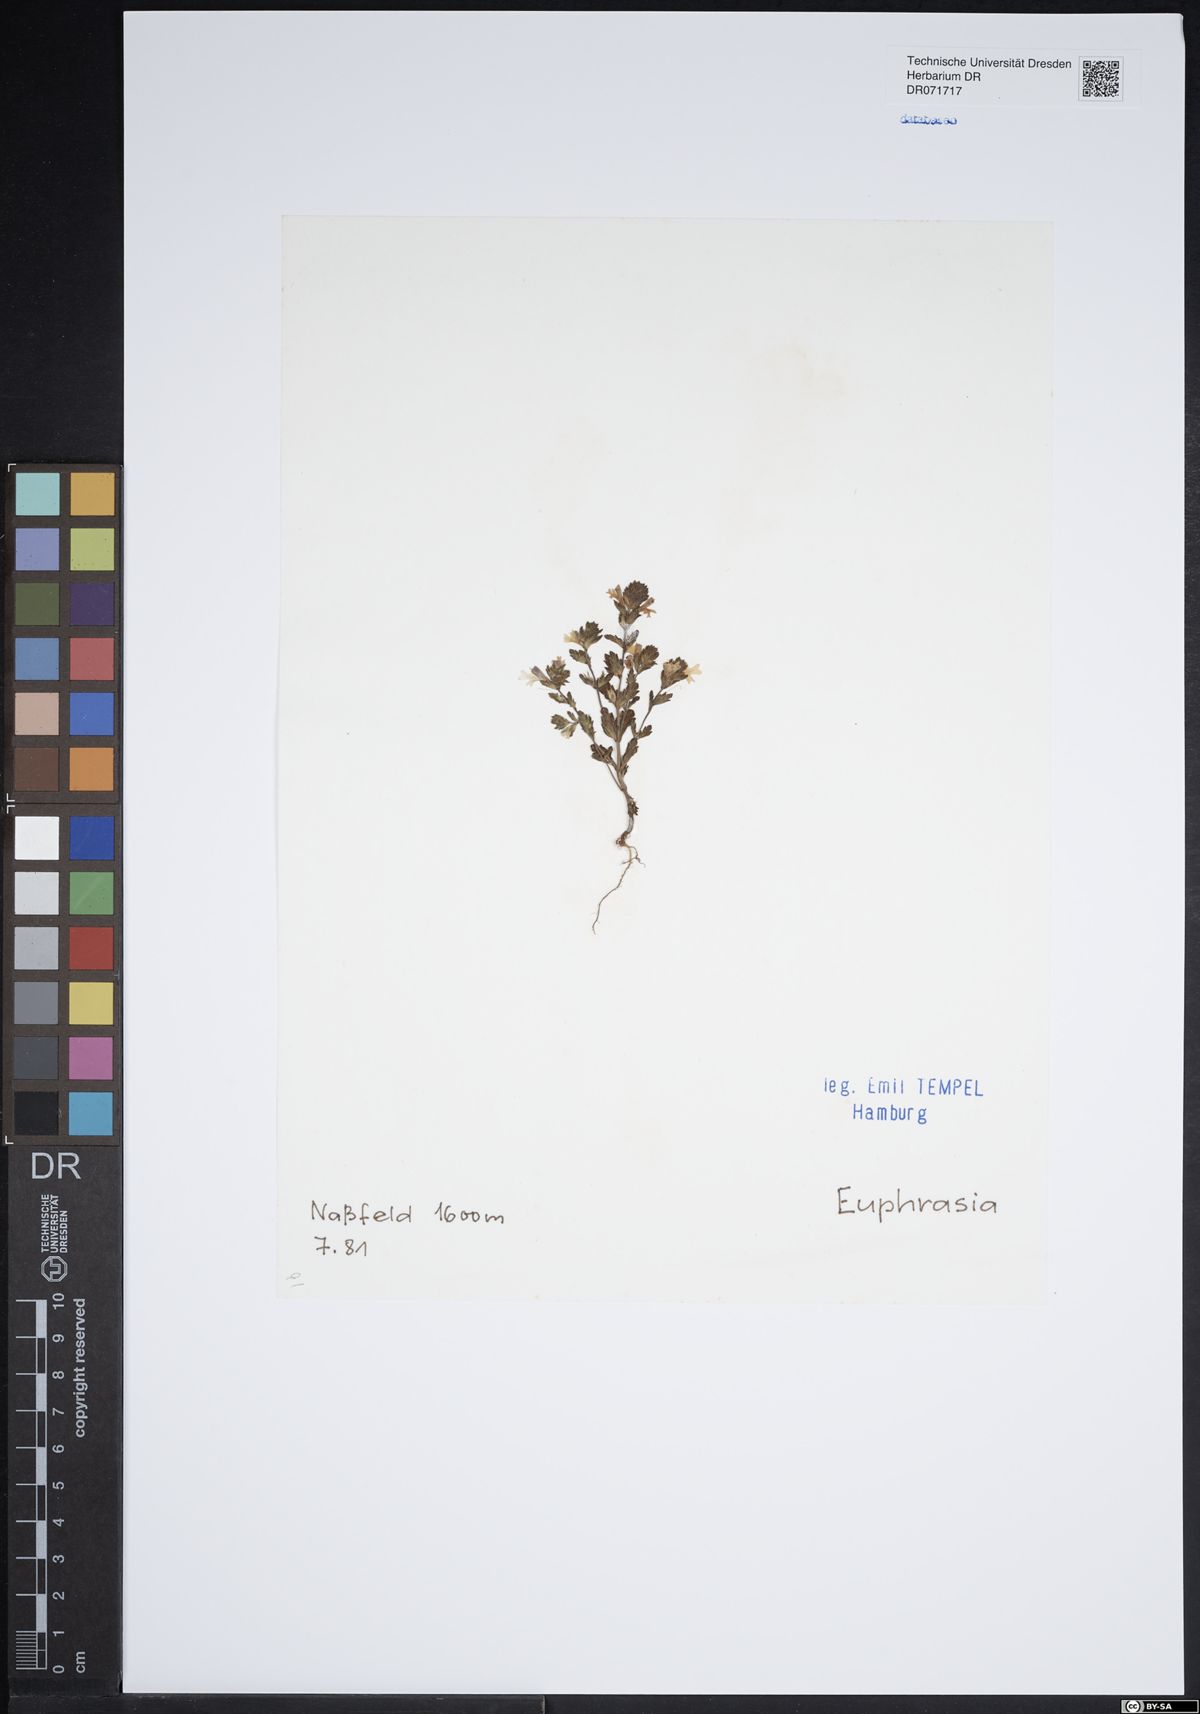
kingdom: Plantae
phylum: Tracheophyta
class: Magnoliopsida
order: Lamiales
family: Orobanchaceae
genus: Euphrasia
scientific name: Euphrasia
